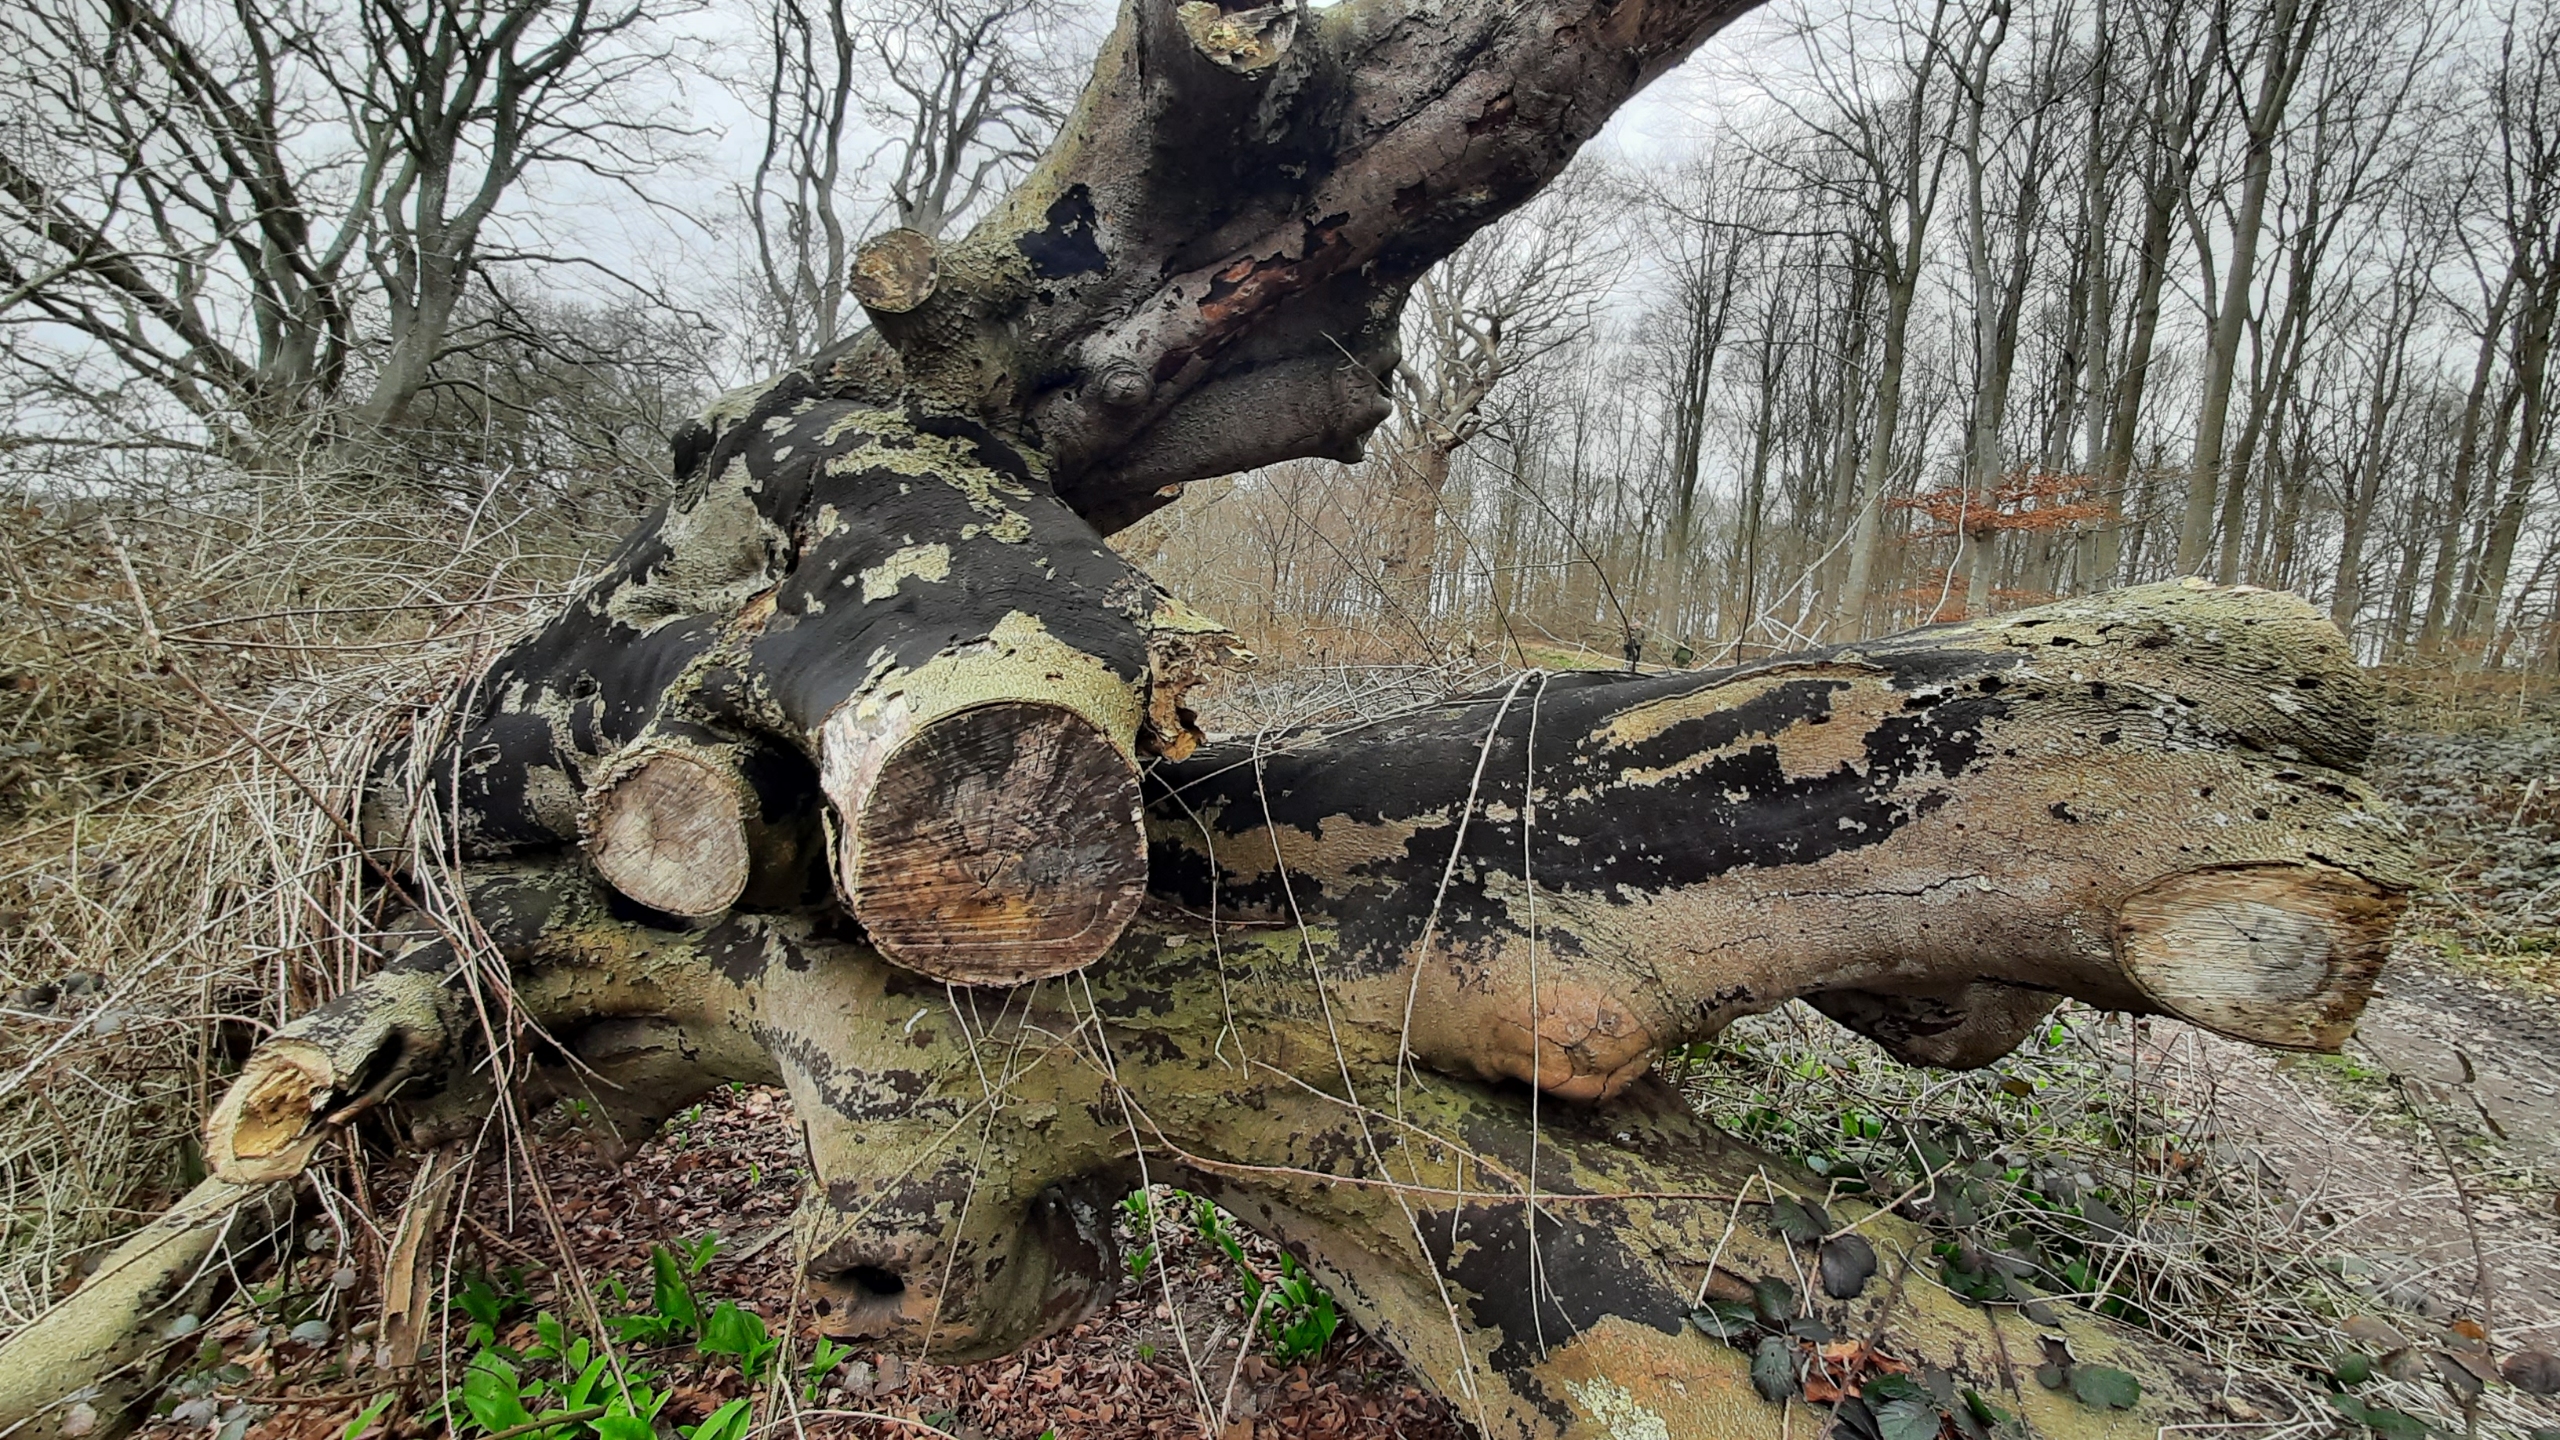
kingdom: Fungi
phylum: Ascomycota
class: Sordariomycetes
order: Xylariales
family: Diatrypaceae
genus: Eutypa
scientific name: Eutypa spinosa
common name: Grov kulskorpe
